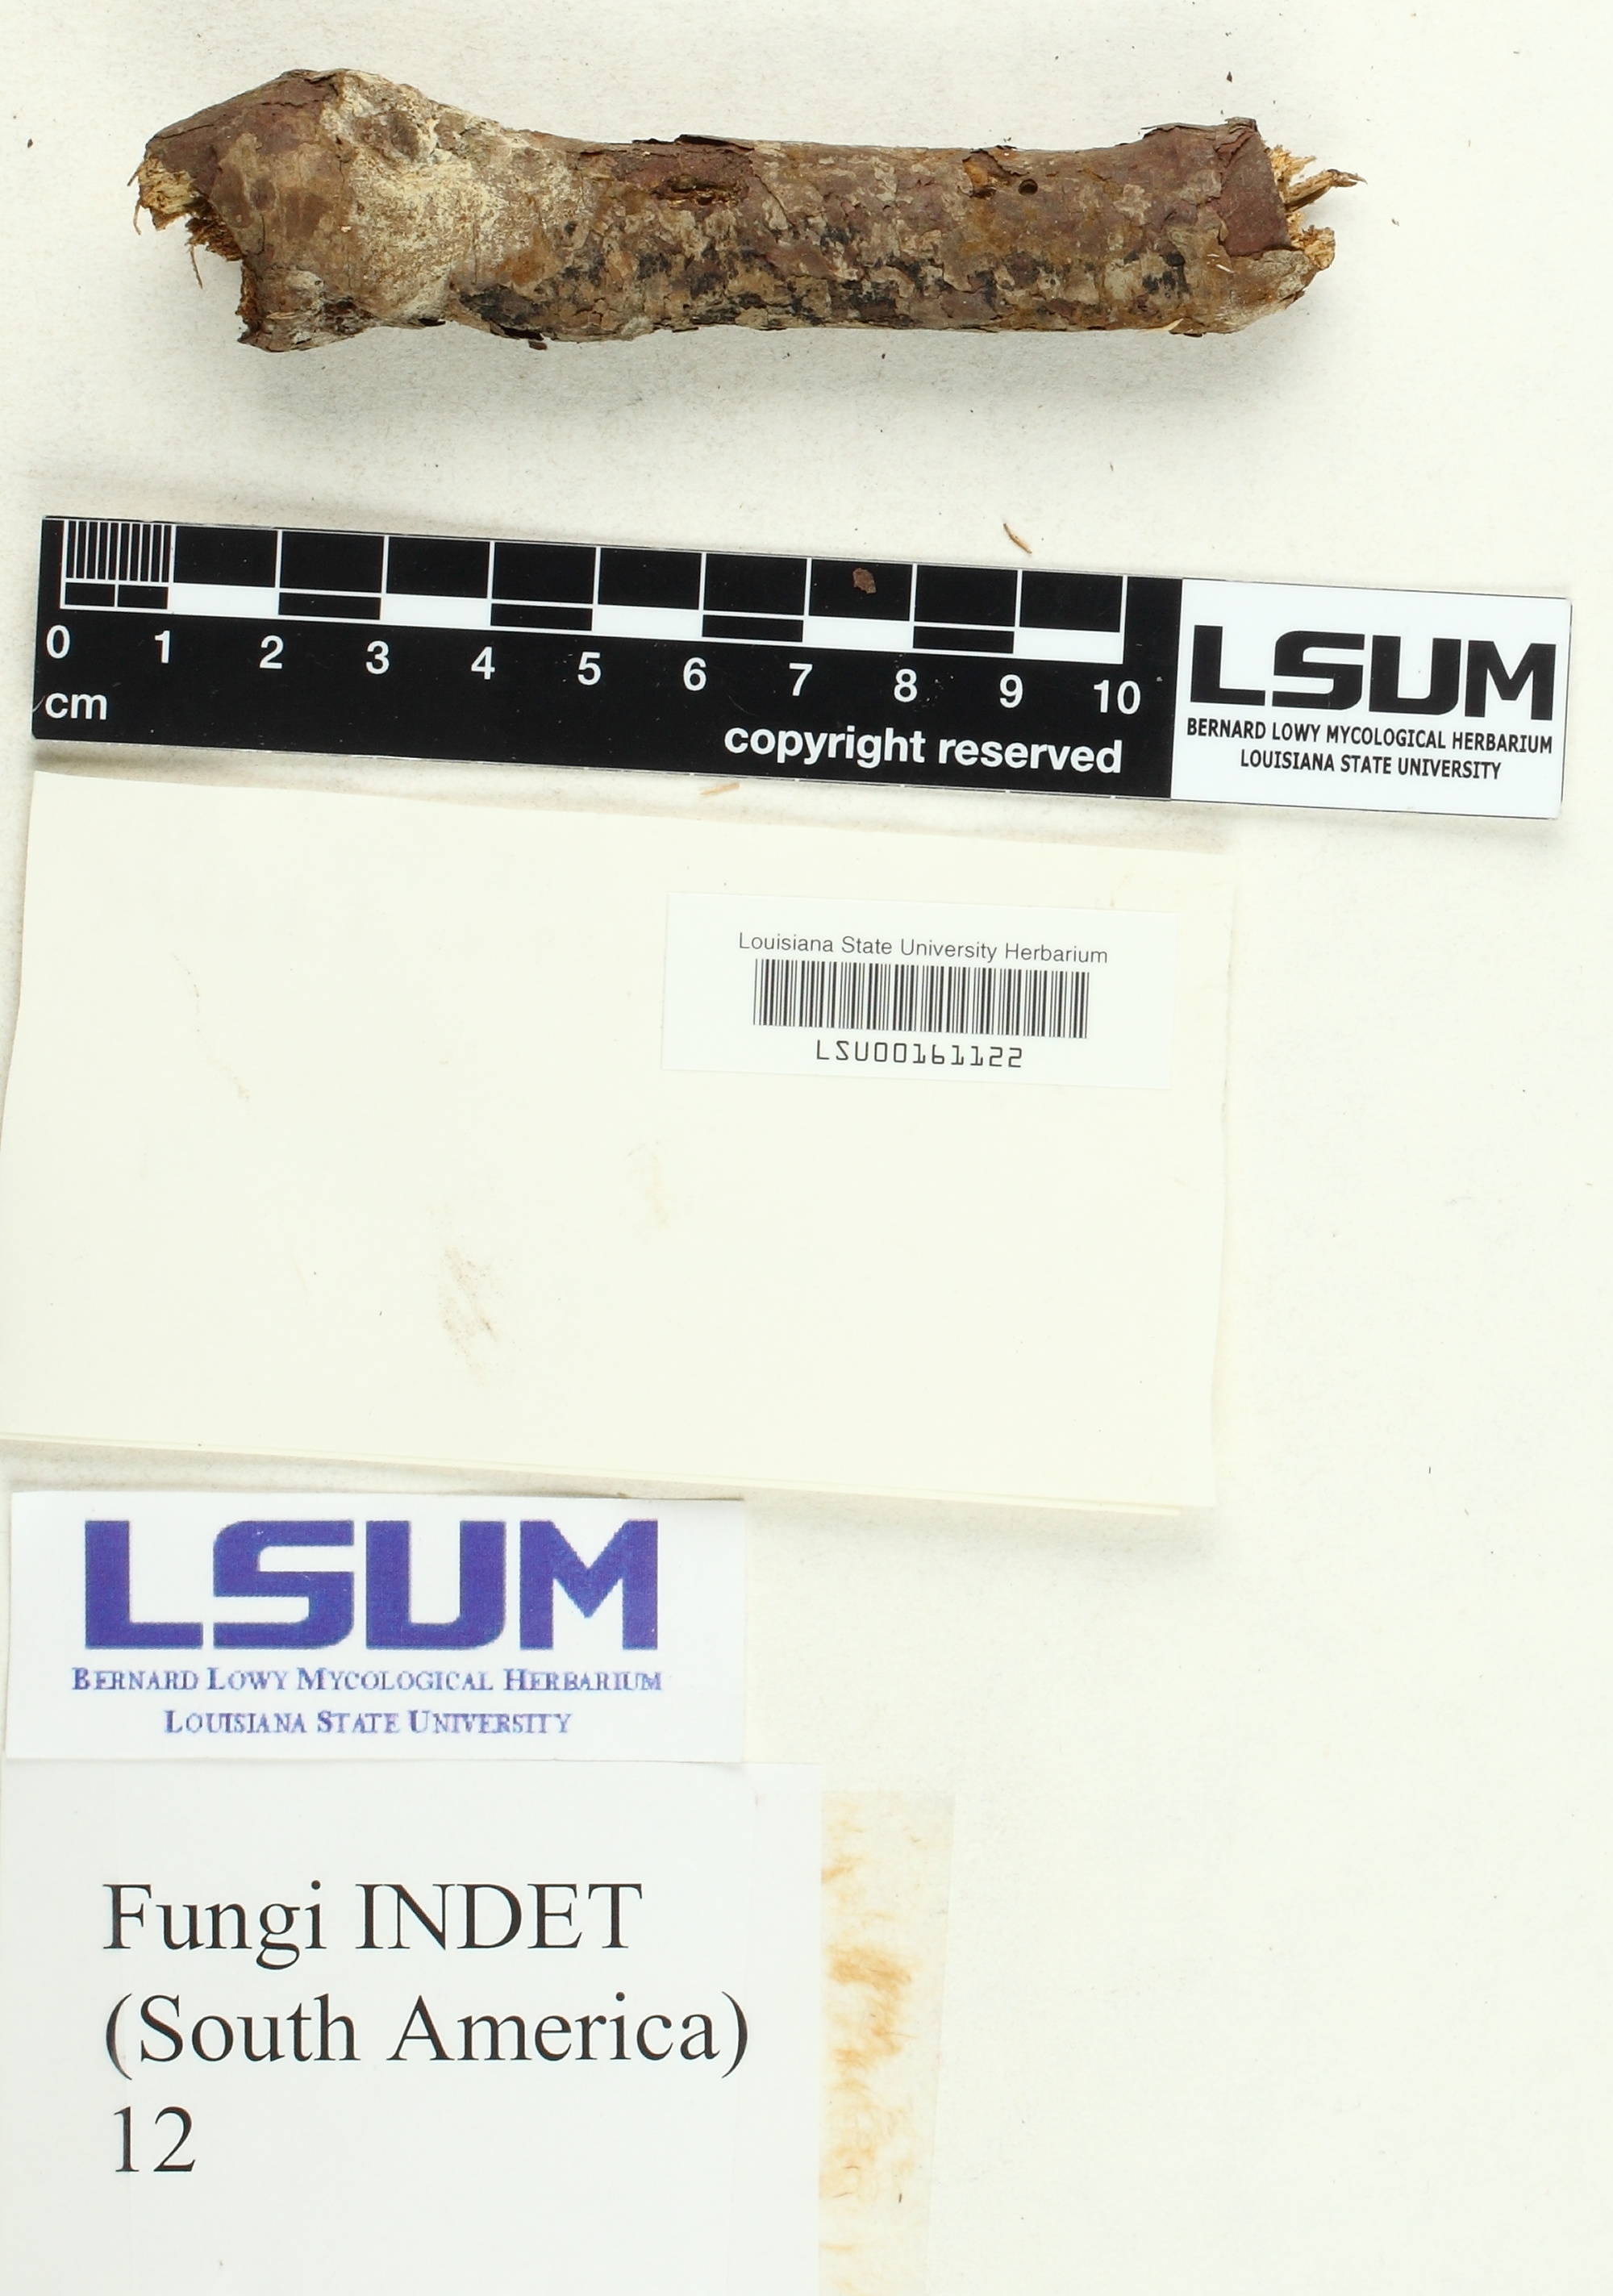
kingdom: Fungi
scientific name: Fungi
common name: Fungi
